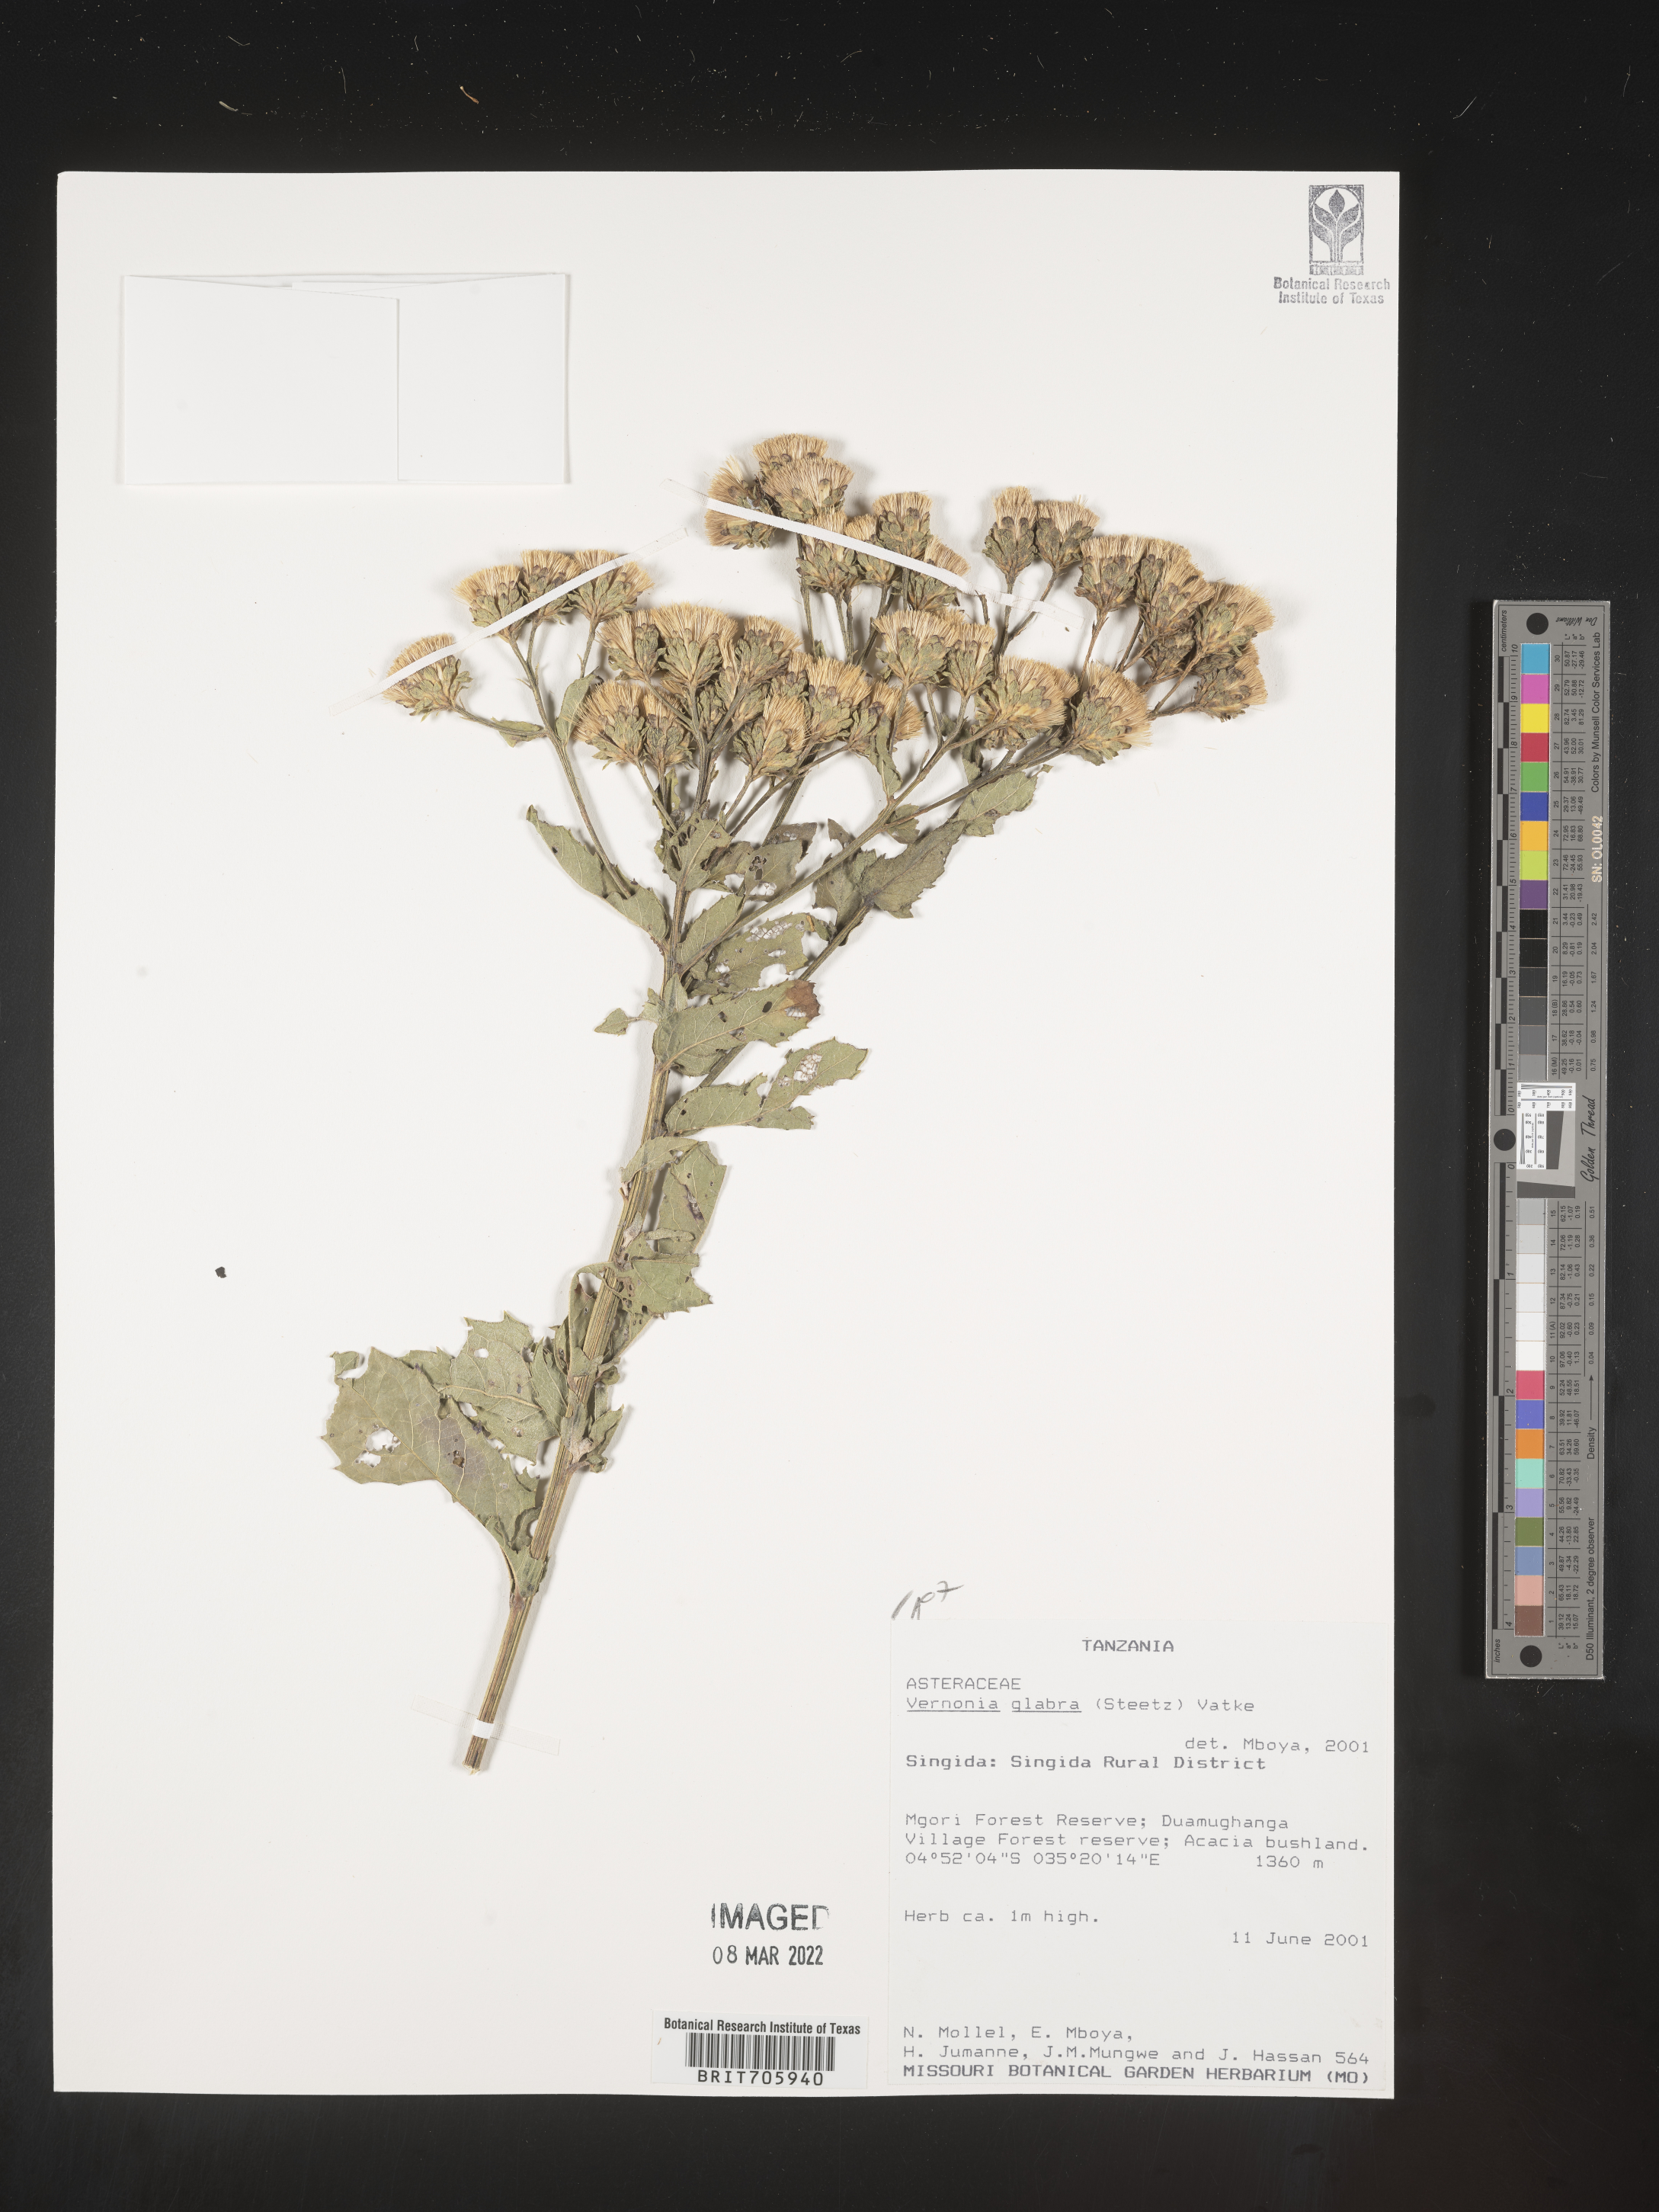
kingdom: Plantae
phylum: Tracheophyta
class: Magnoliopsida
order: Asterales
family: Asteraceae
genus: Vernonia
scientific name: Vernonia
